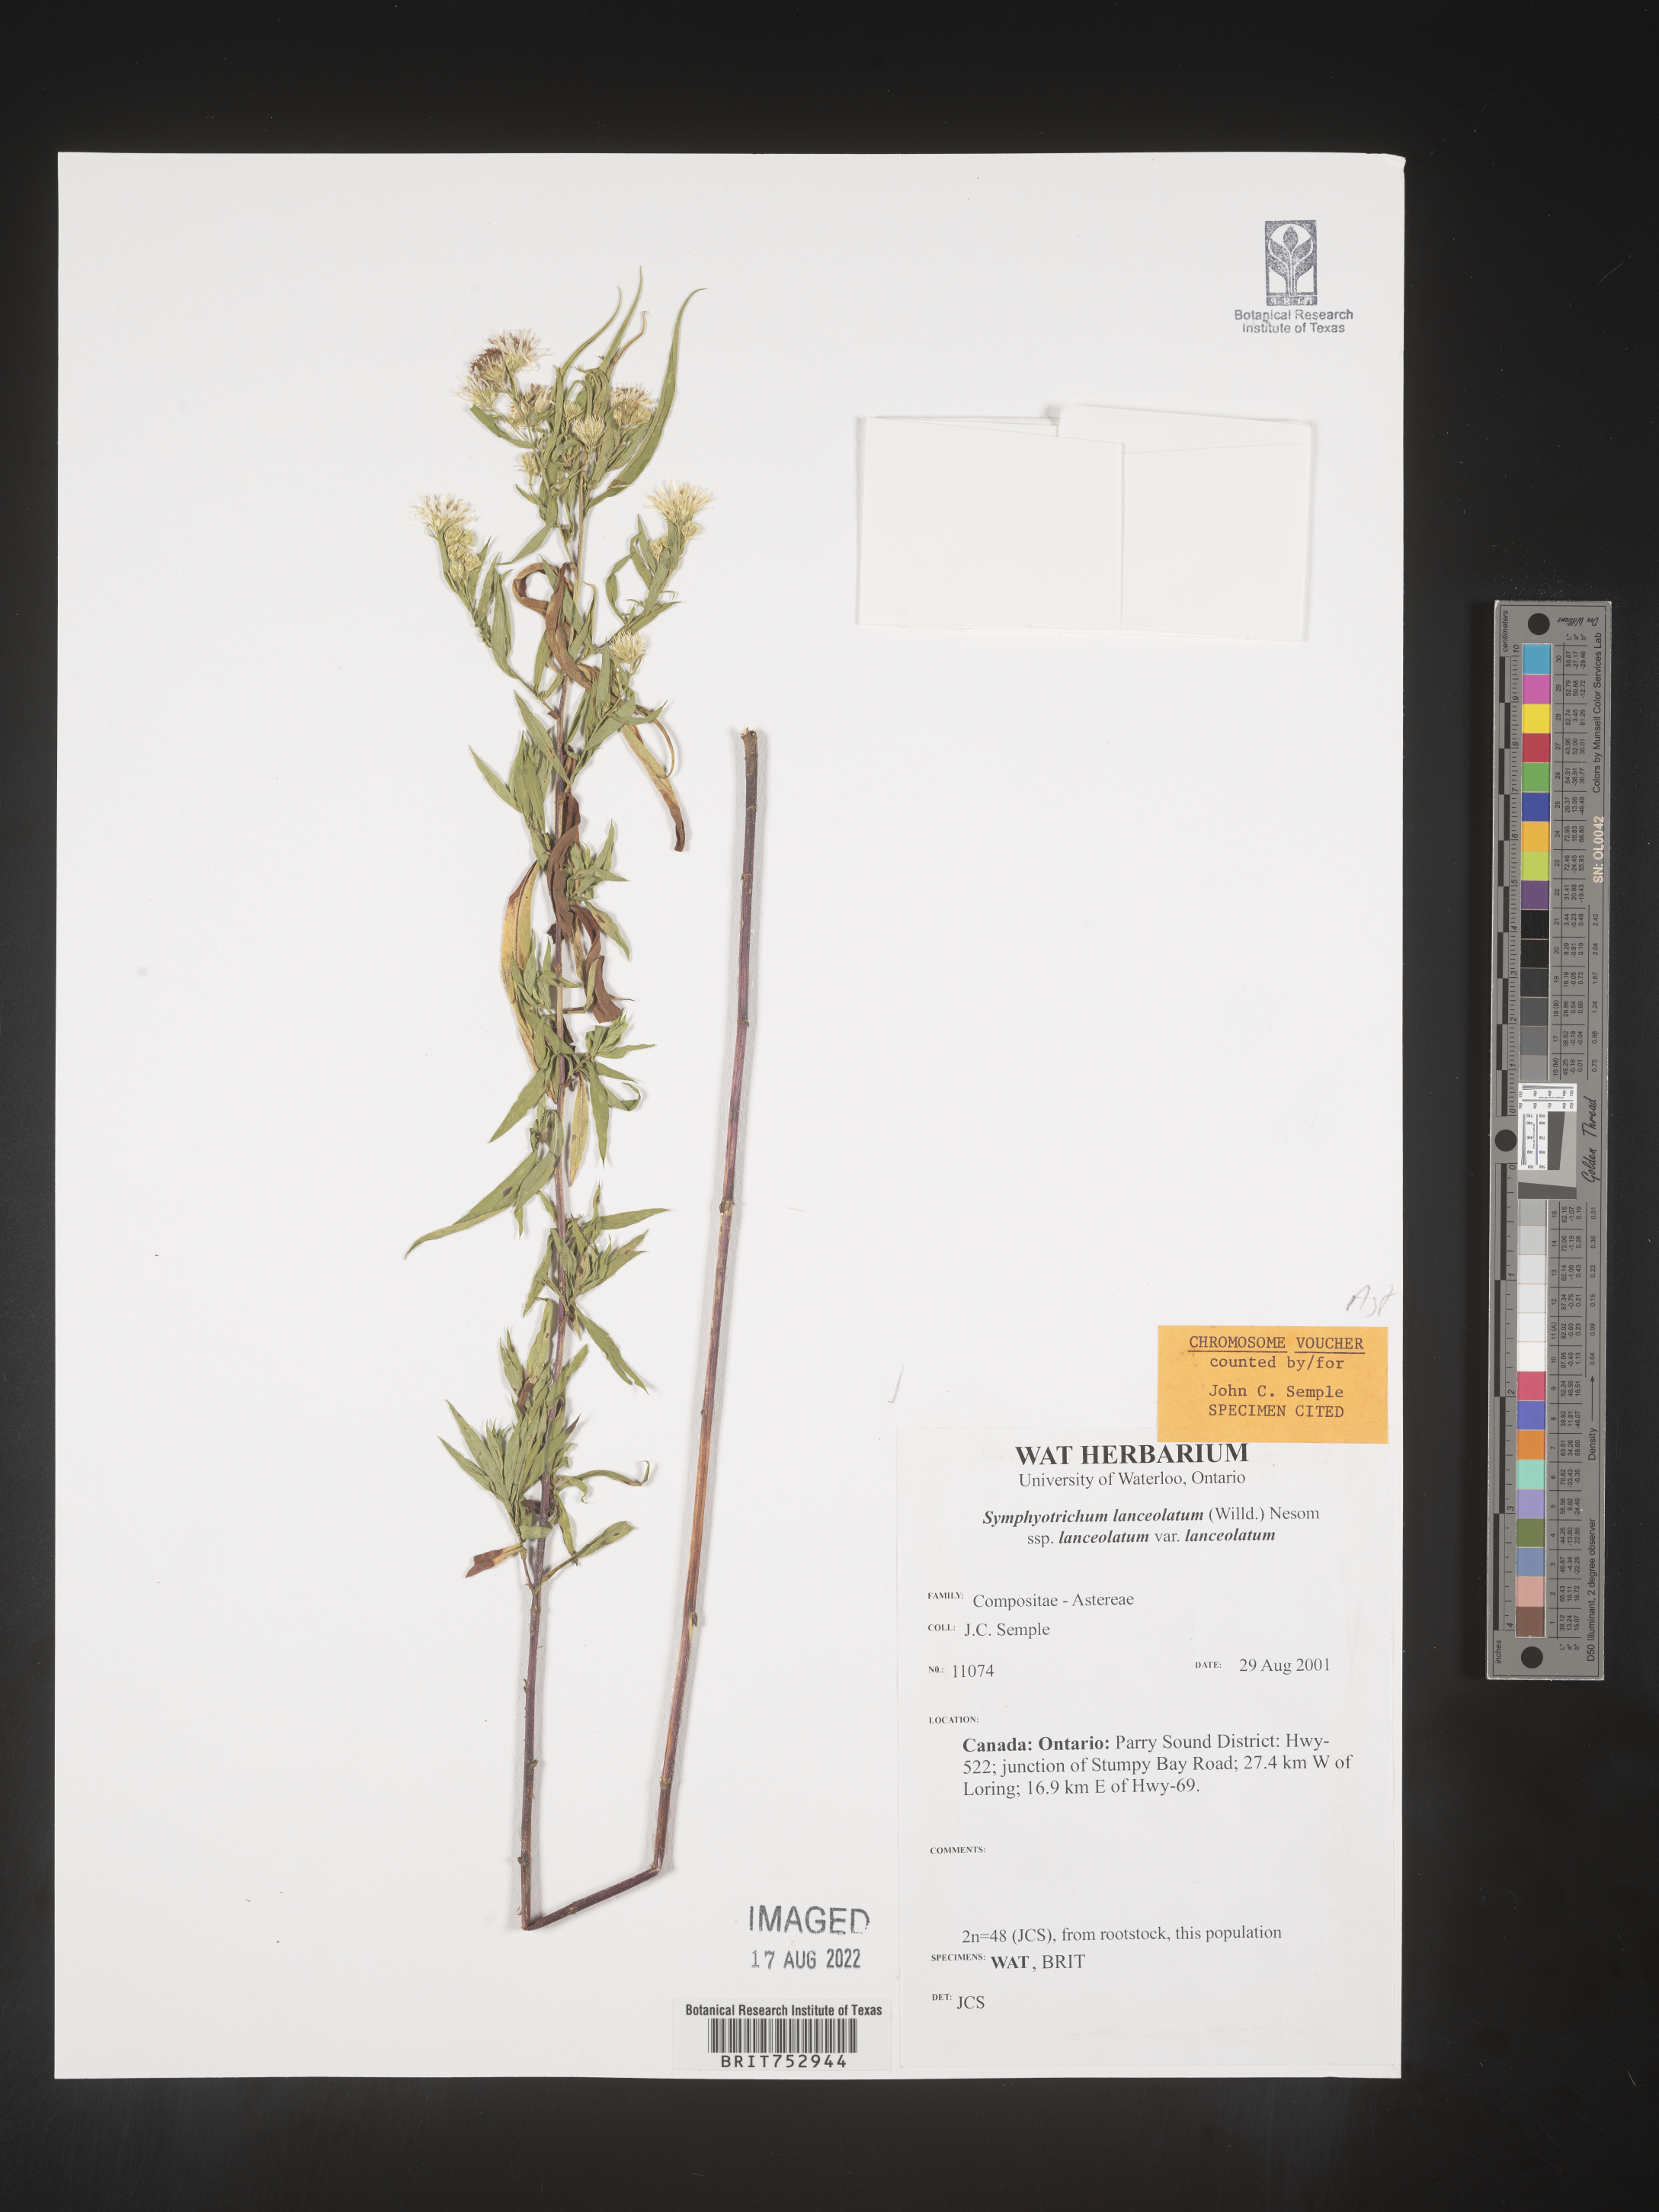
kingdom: Plantae
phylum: Tracheophyta
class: Magnoliopsida
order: Asterales
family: Asteraceae
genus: Symphyotrichum
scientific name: Symphyotrichum lanceolatum
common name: Panicled aster
